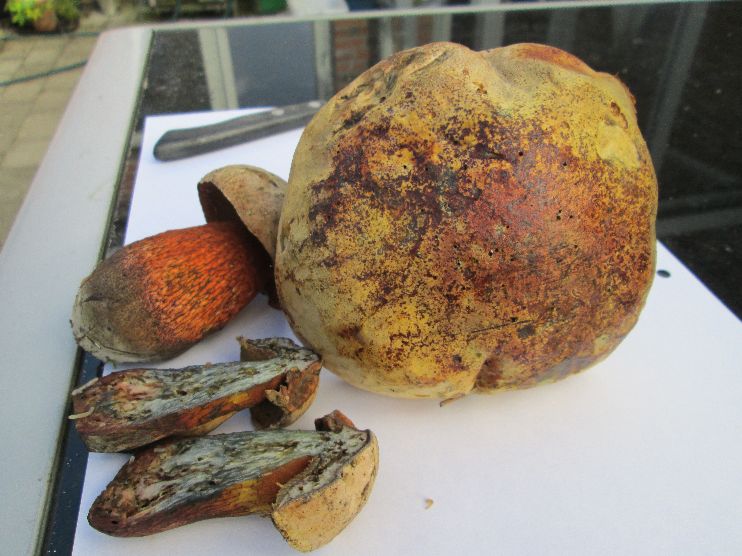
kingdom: Fungi
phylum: Basidiomycota
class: Agaricomycetes
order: Boletales
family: Boletaceae
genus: Suillellus
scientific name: Suillellus luridus
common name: netstokket indigorørhat
